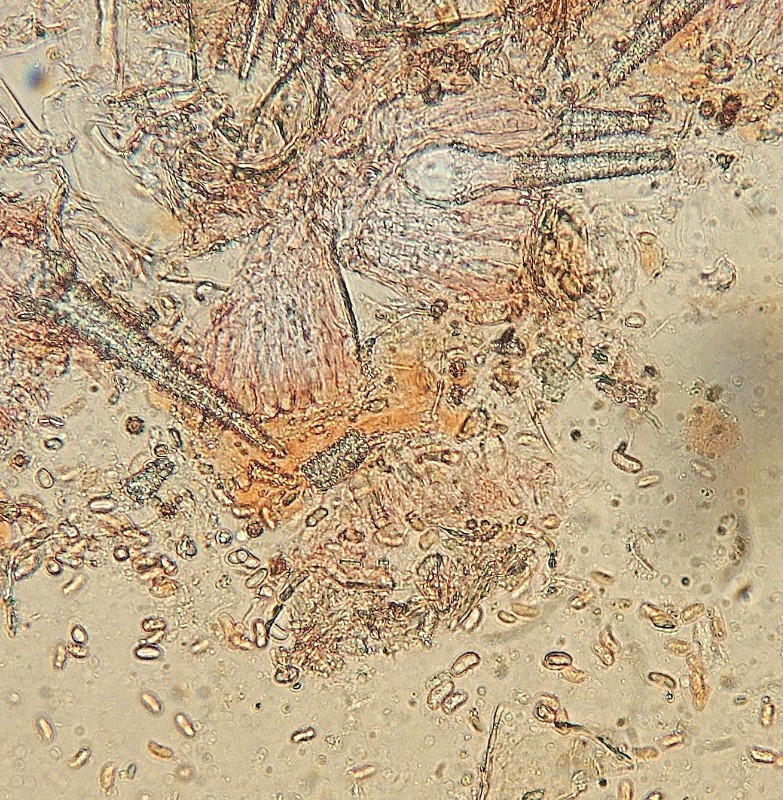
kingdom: Fungi
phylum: Basidiomycota
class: Agaricomycetes
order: Polyporales
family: Meruliaceae
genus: Scopuloides
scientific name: Scopuloides rimosa
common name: dughinde
